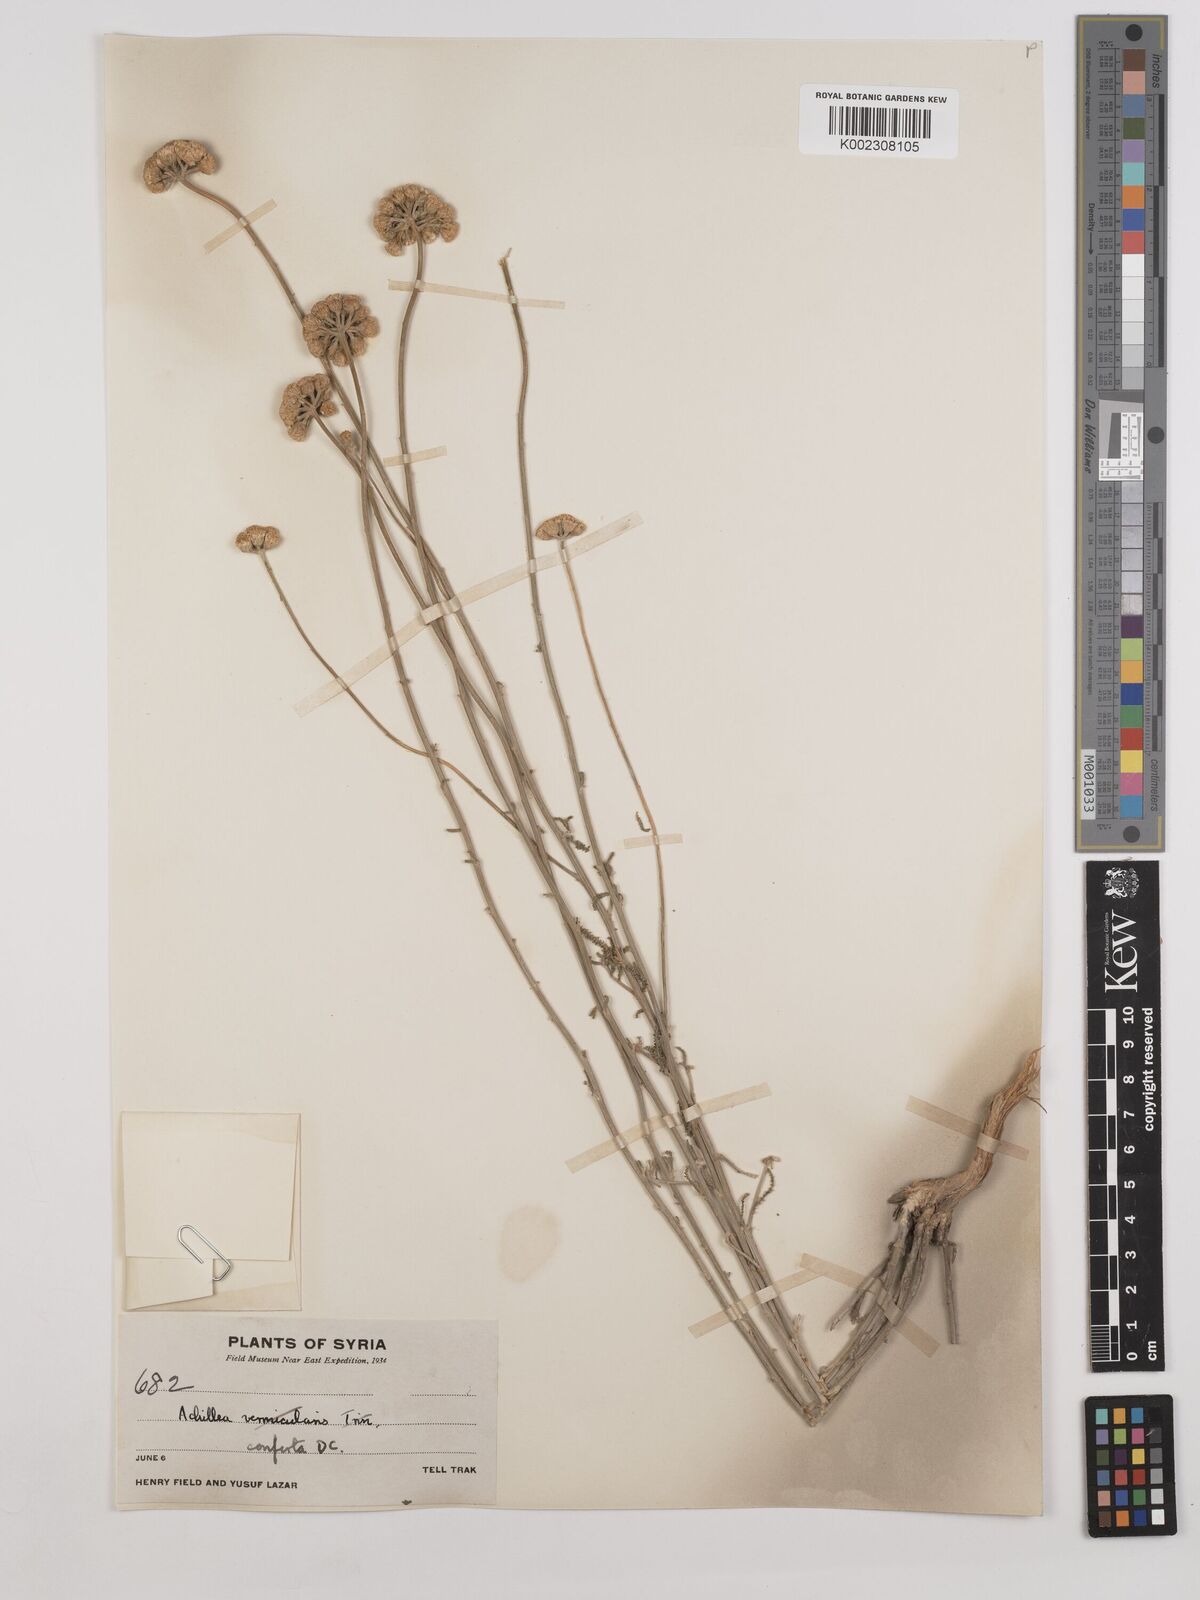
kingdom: Plantae
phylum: Tracheophyta
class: Magnoliopsida
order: Asterales
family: Asteraceae
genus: Achillea
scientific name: Achillea conferta
